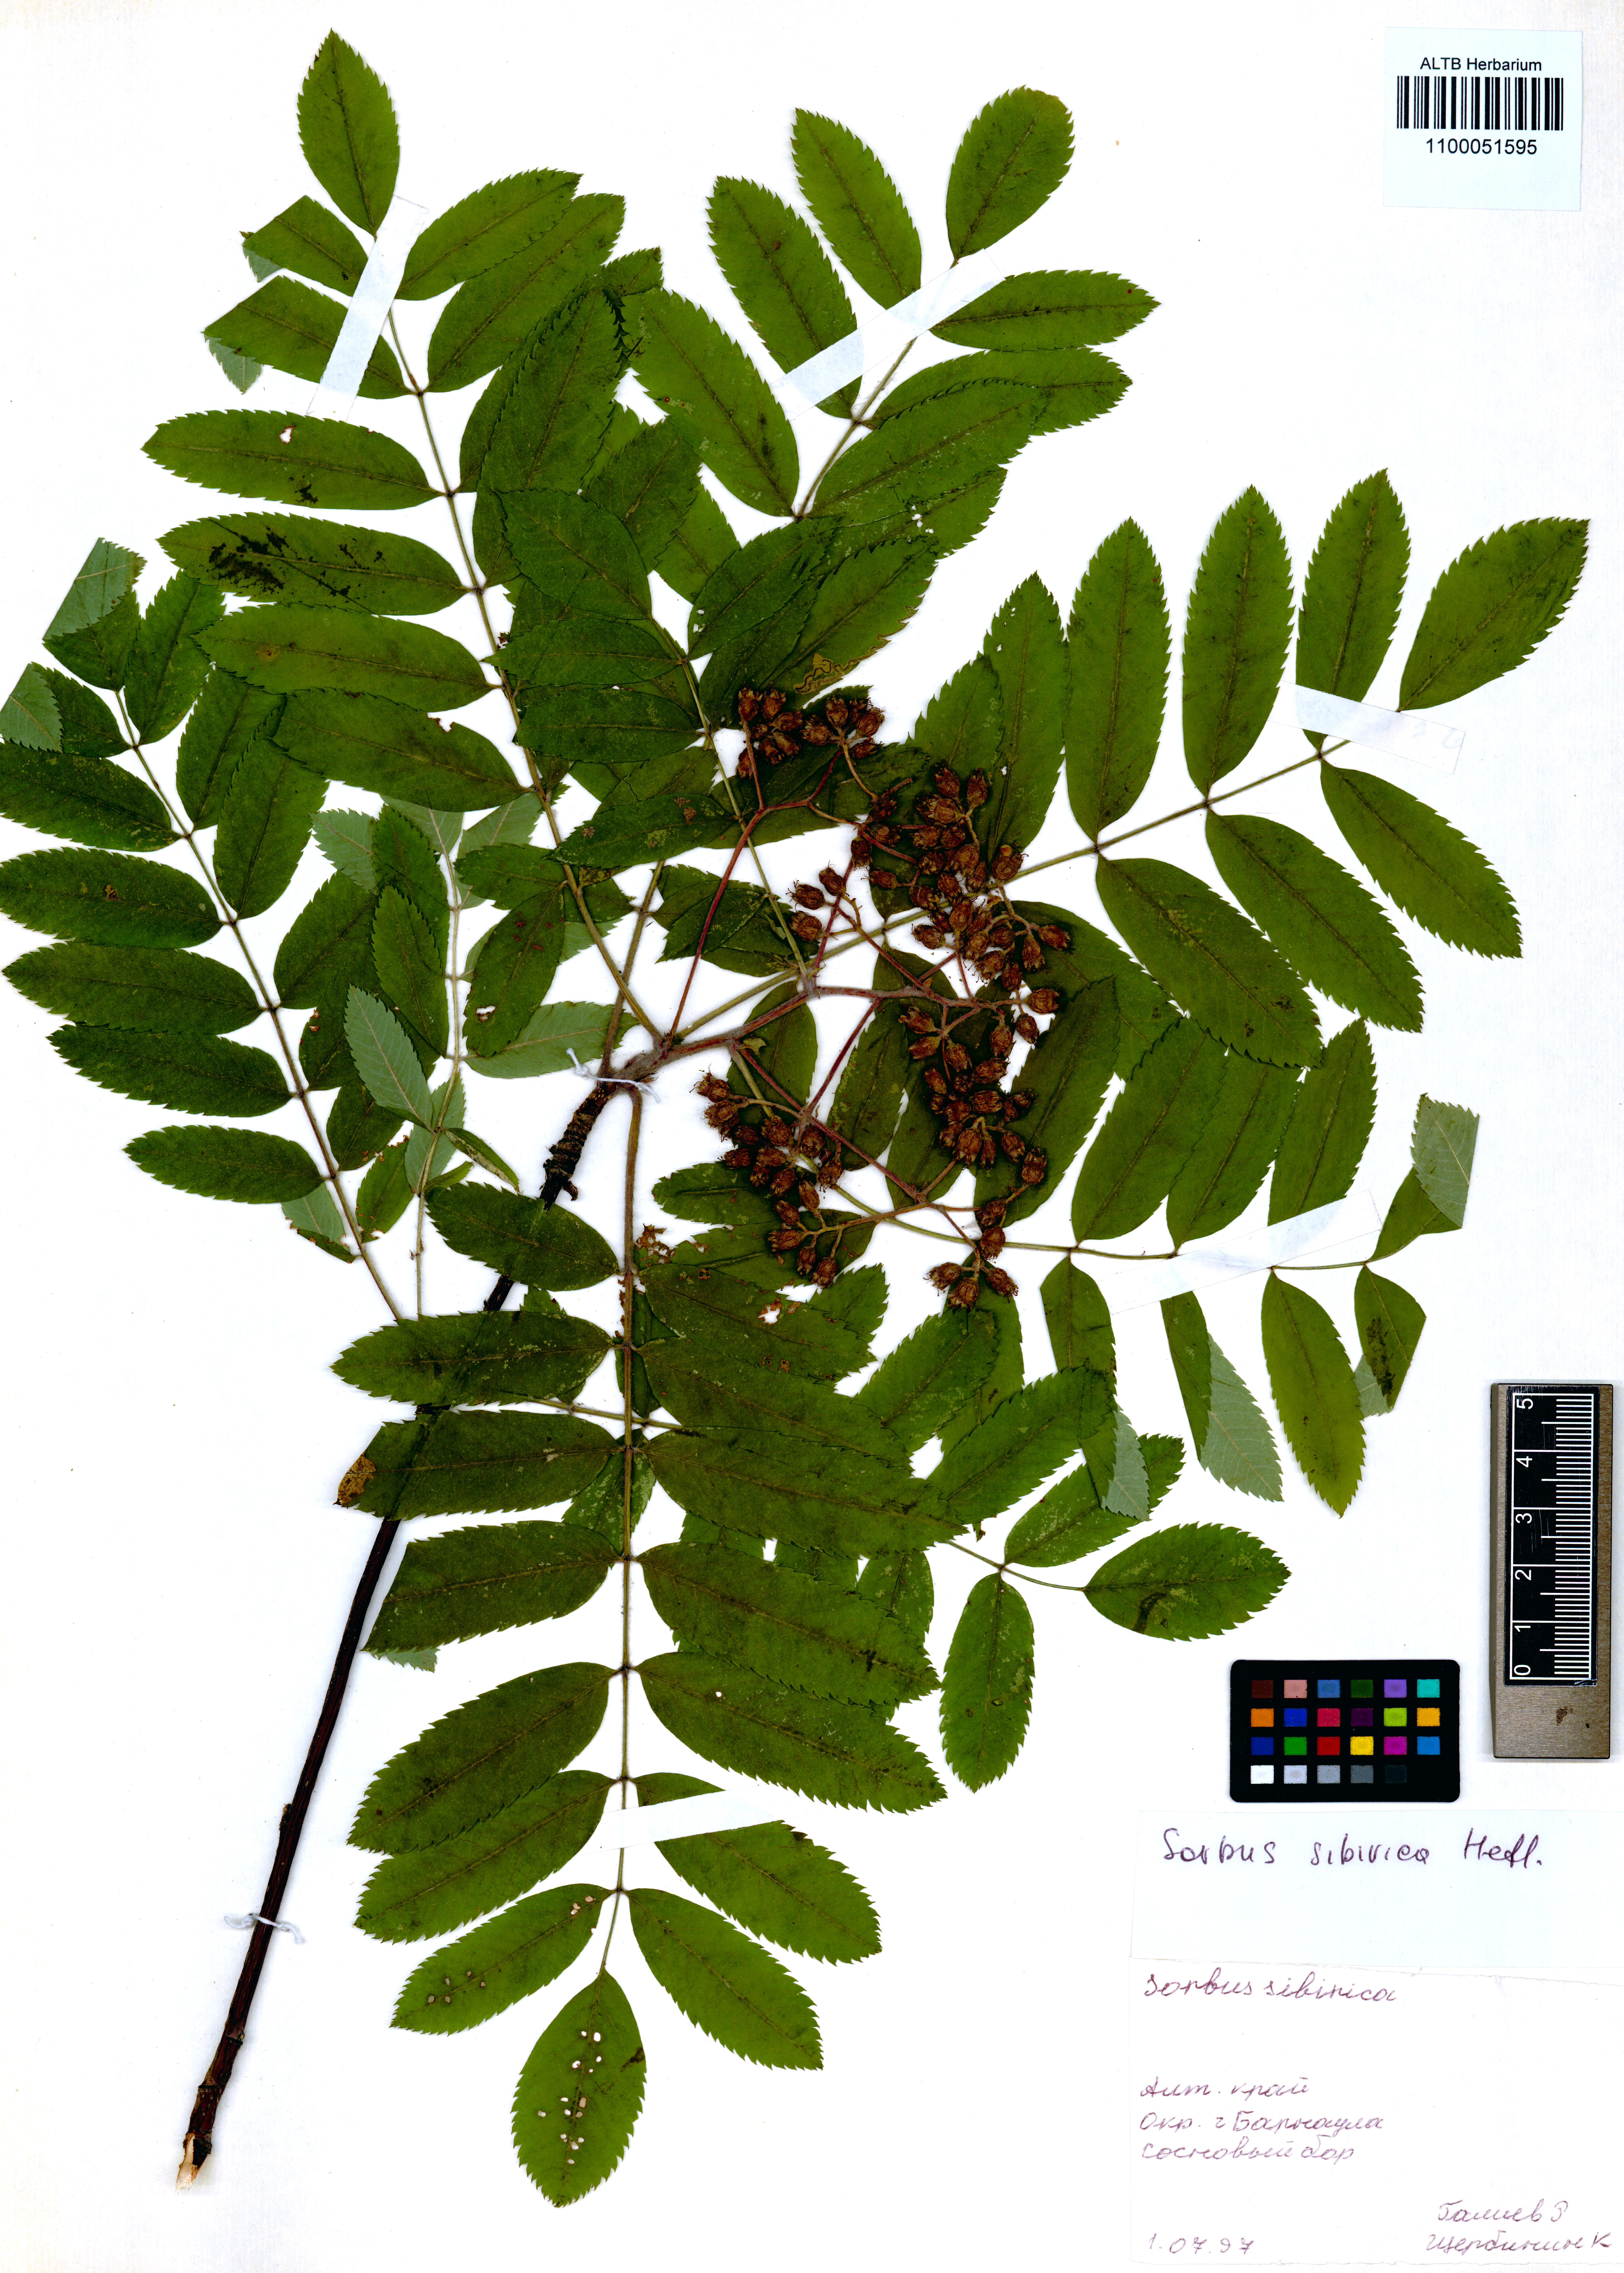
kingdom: Plantae
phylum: Tracheophyta
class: Magnoliopsida
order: Rosales
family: Rosaceae
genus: Sorbus
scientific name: Sorbus aucuparia
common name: Rowan
